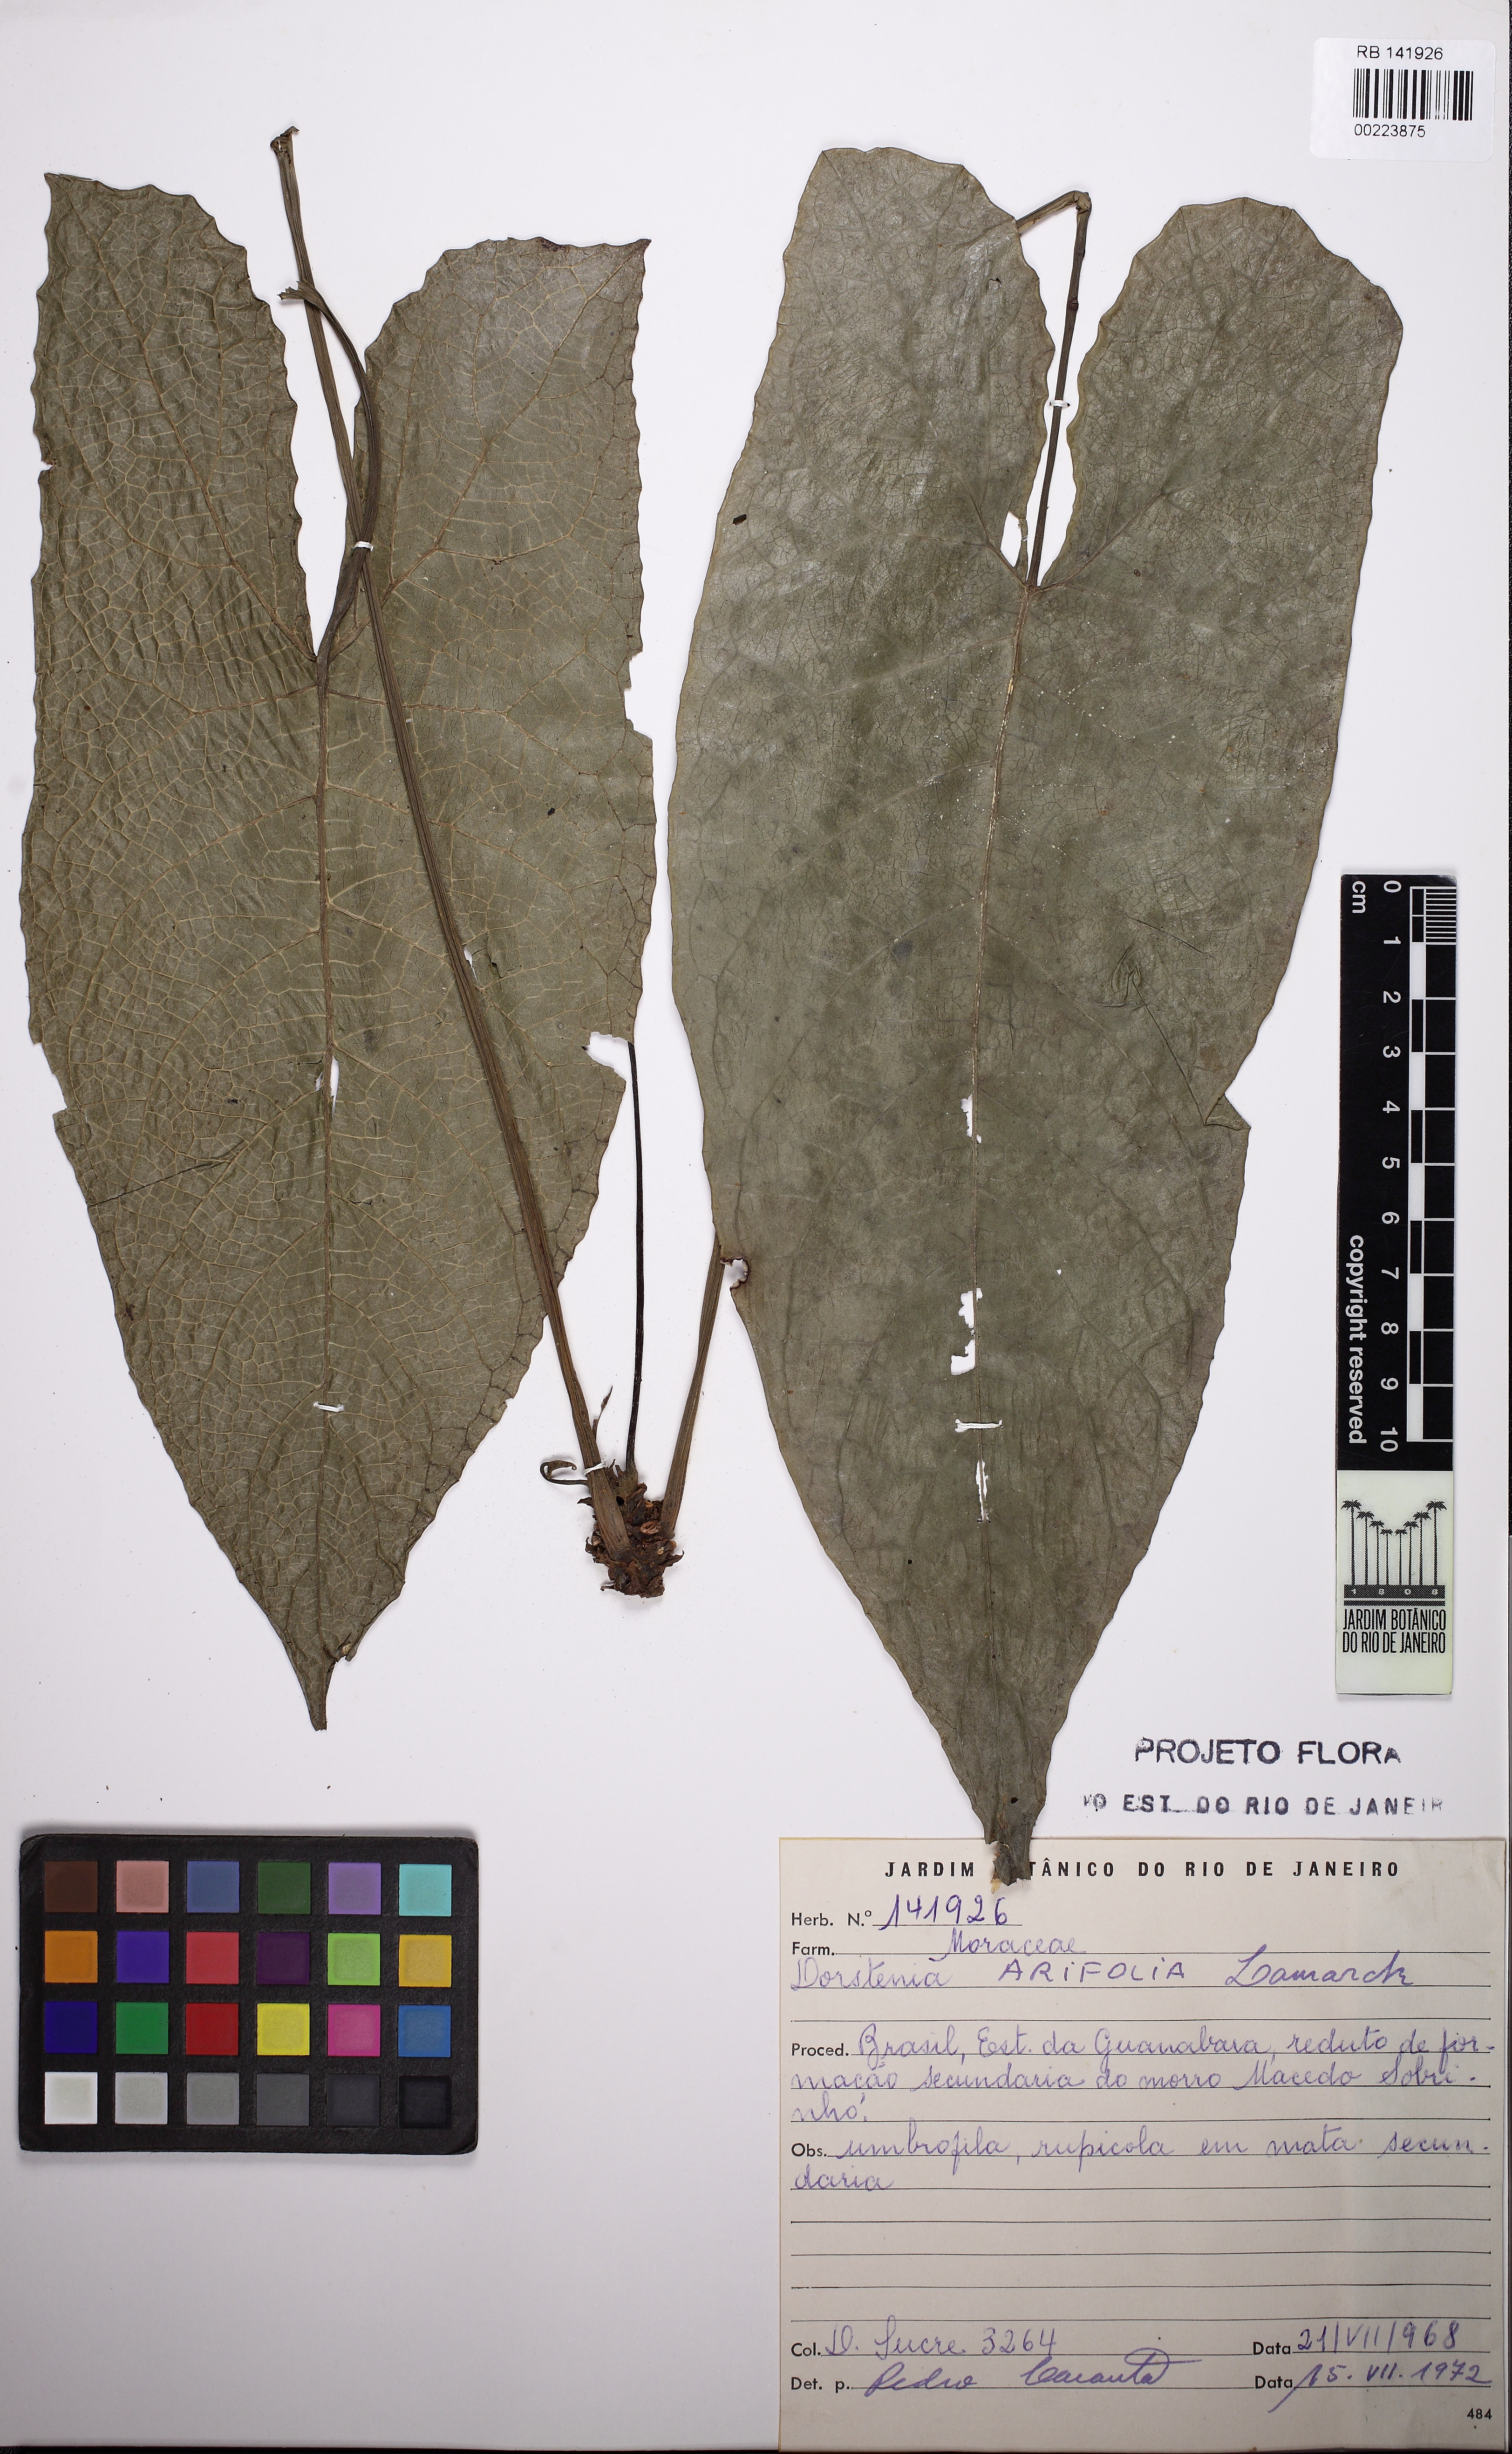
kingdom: Plantae
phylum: Tracheophyta
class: Magnoliopsida
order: Rosales
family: Moraceae
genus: Dorstenia
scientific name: Dorstenia arifolia
